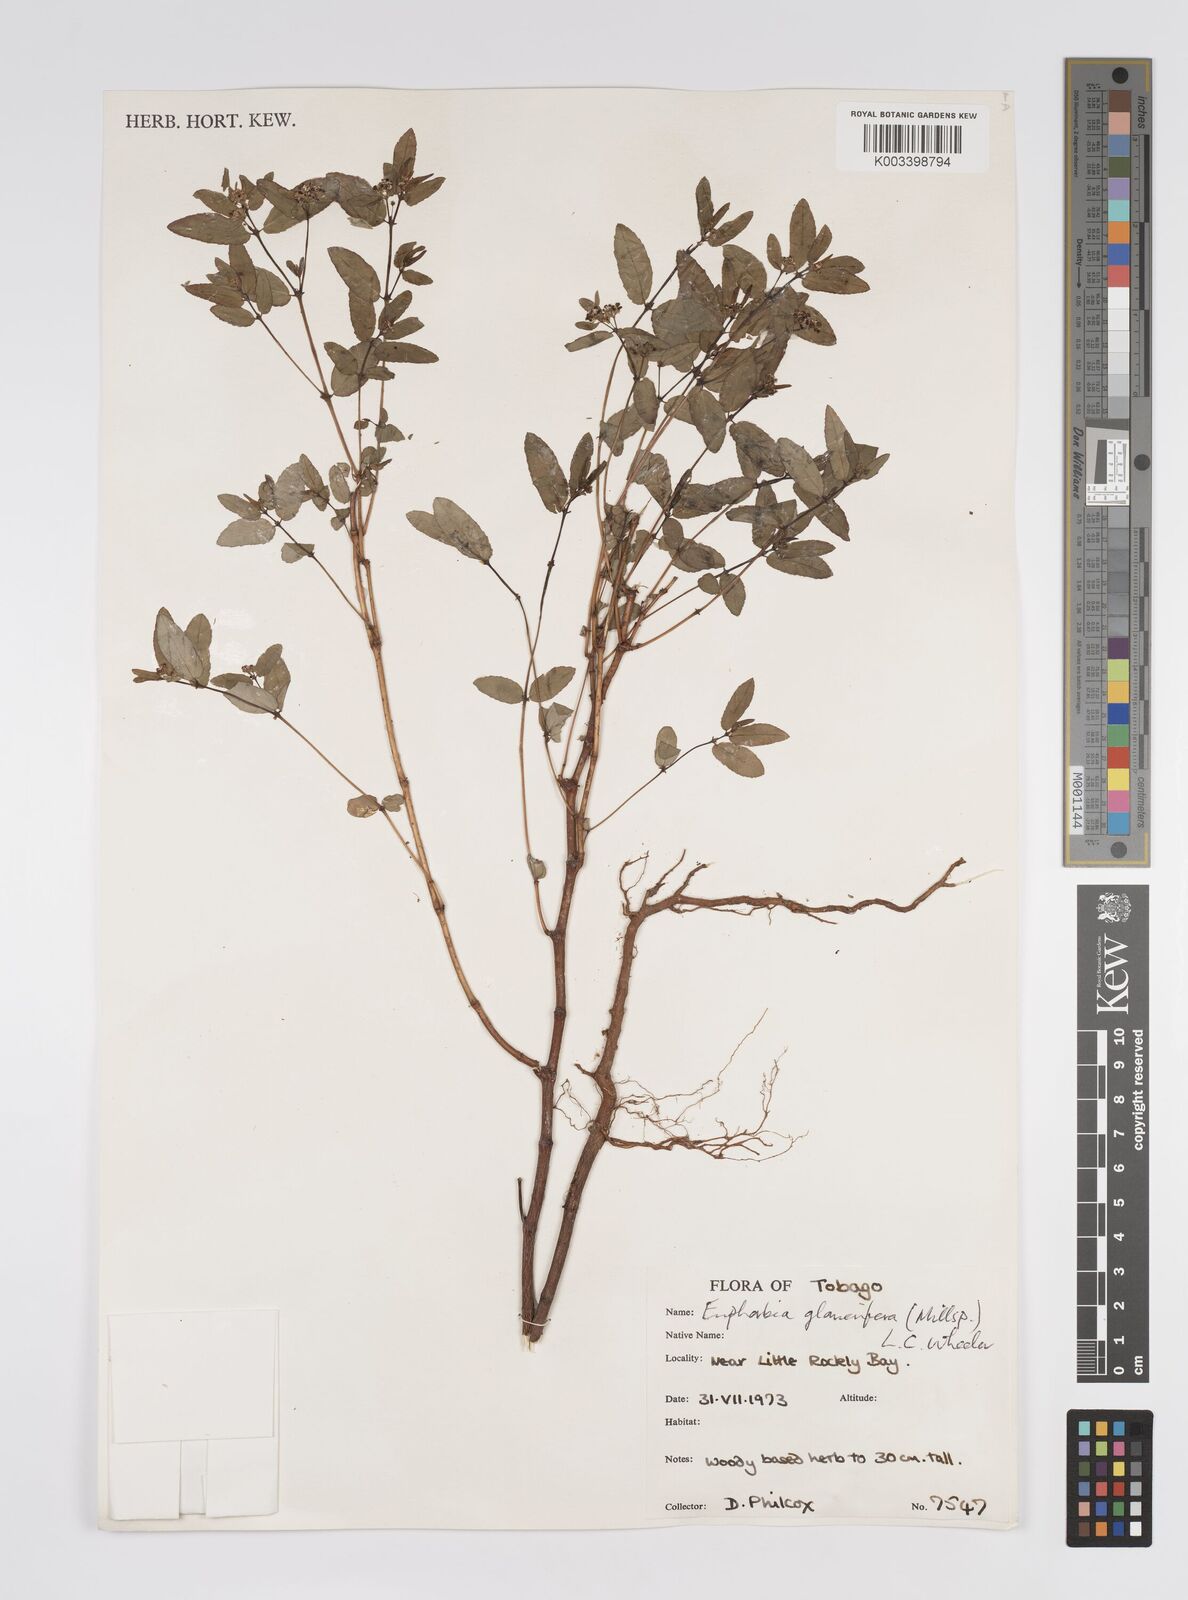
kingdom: Plantae
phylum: Tracheophyta
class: Magnoliopsida
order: Malpighiales
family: Euphorbiaceae
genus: Euphorbia
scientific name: Euphorbia hypericifolia
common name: Graceful sandmat
